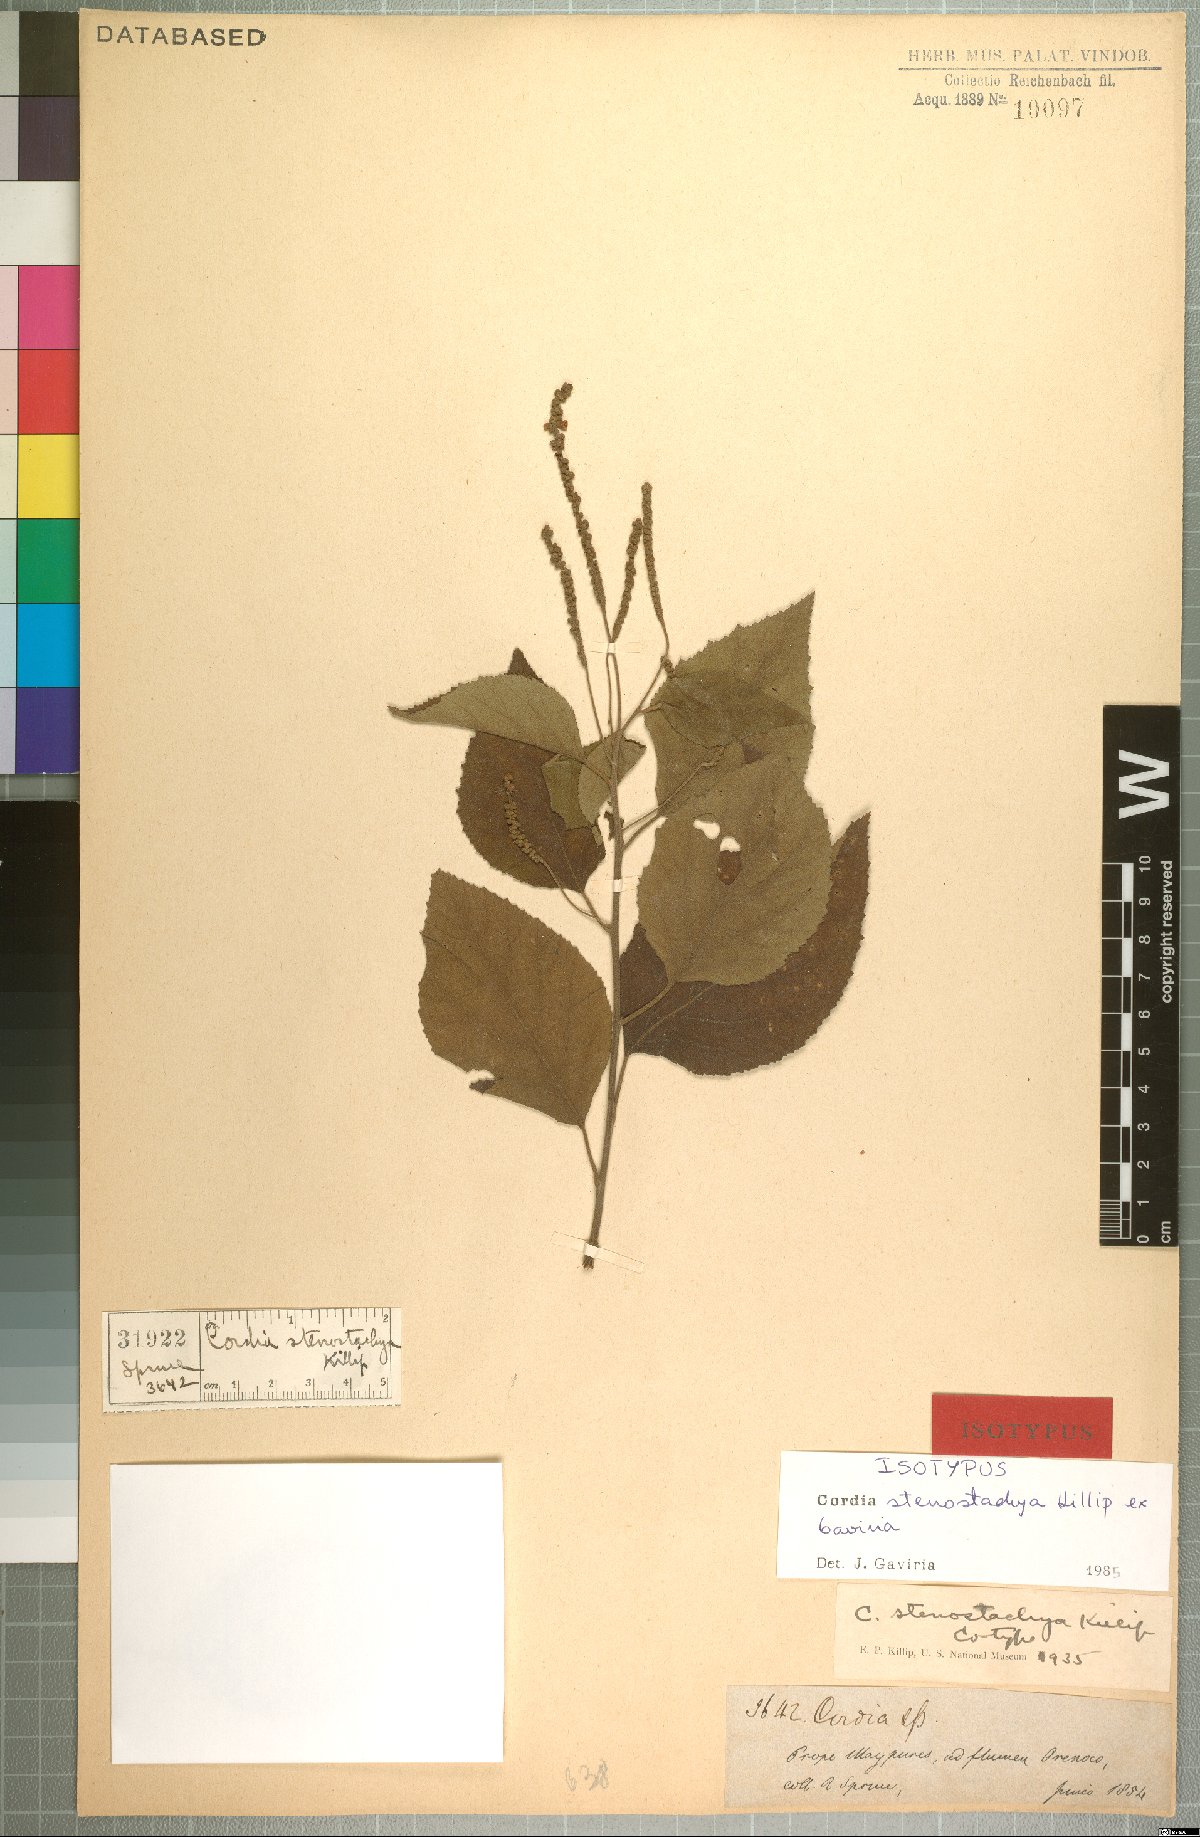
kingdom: Plantae
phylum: Tracheophyta
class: Magnoliopsida
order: Boraginales
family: Cordiaceae
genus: Varronia
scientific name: Varronia stenostachya
